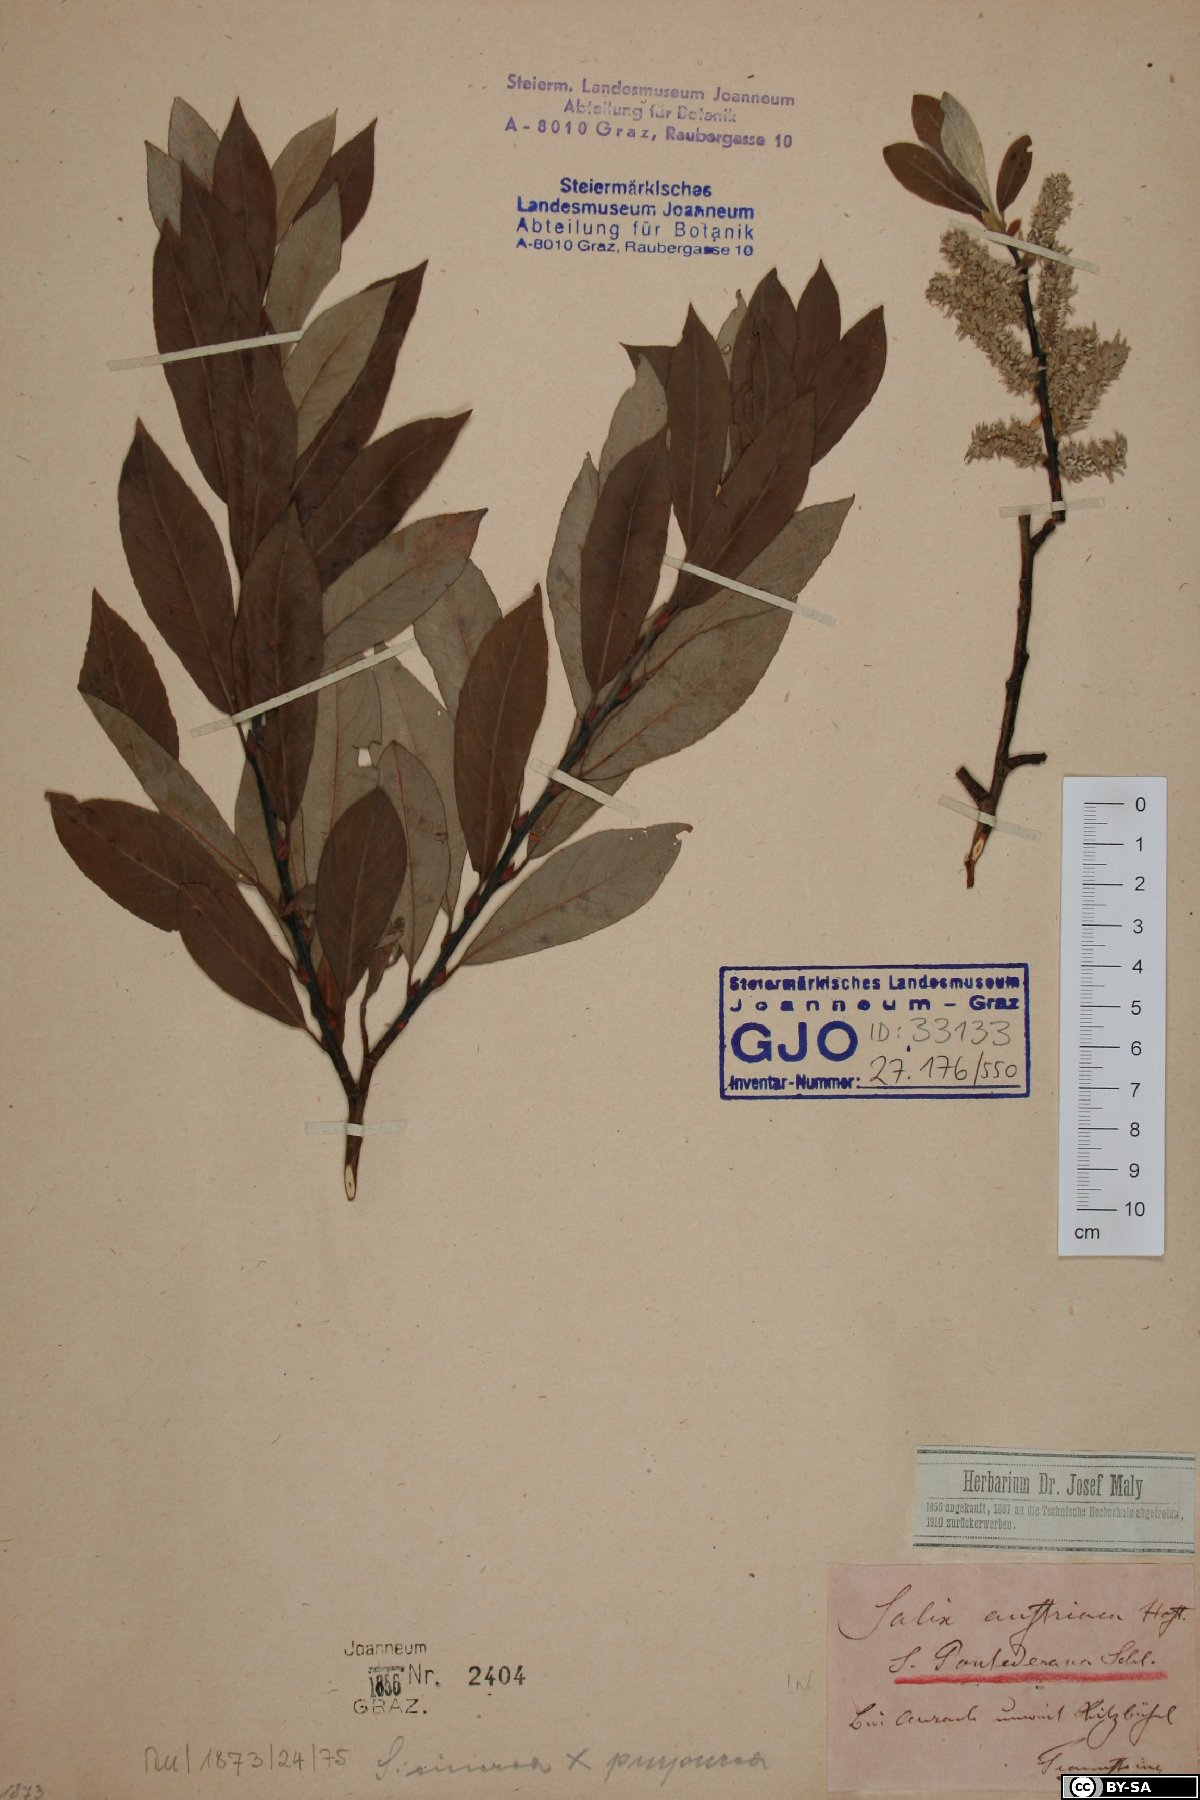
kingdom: Plantae
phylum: Tracheophyta
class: Magnoliopsida
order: Malpighiales
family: Salicaceae
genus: Salix
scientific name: Salix pontederana
